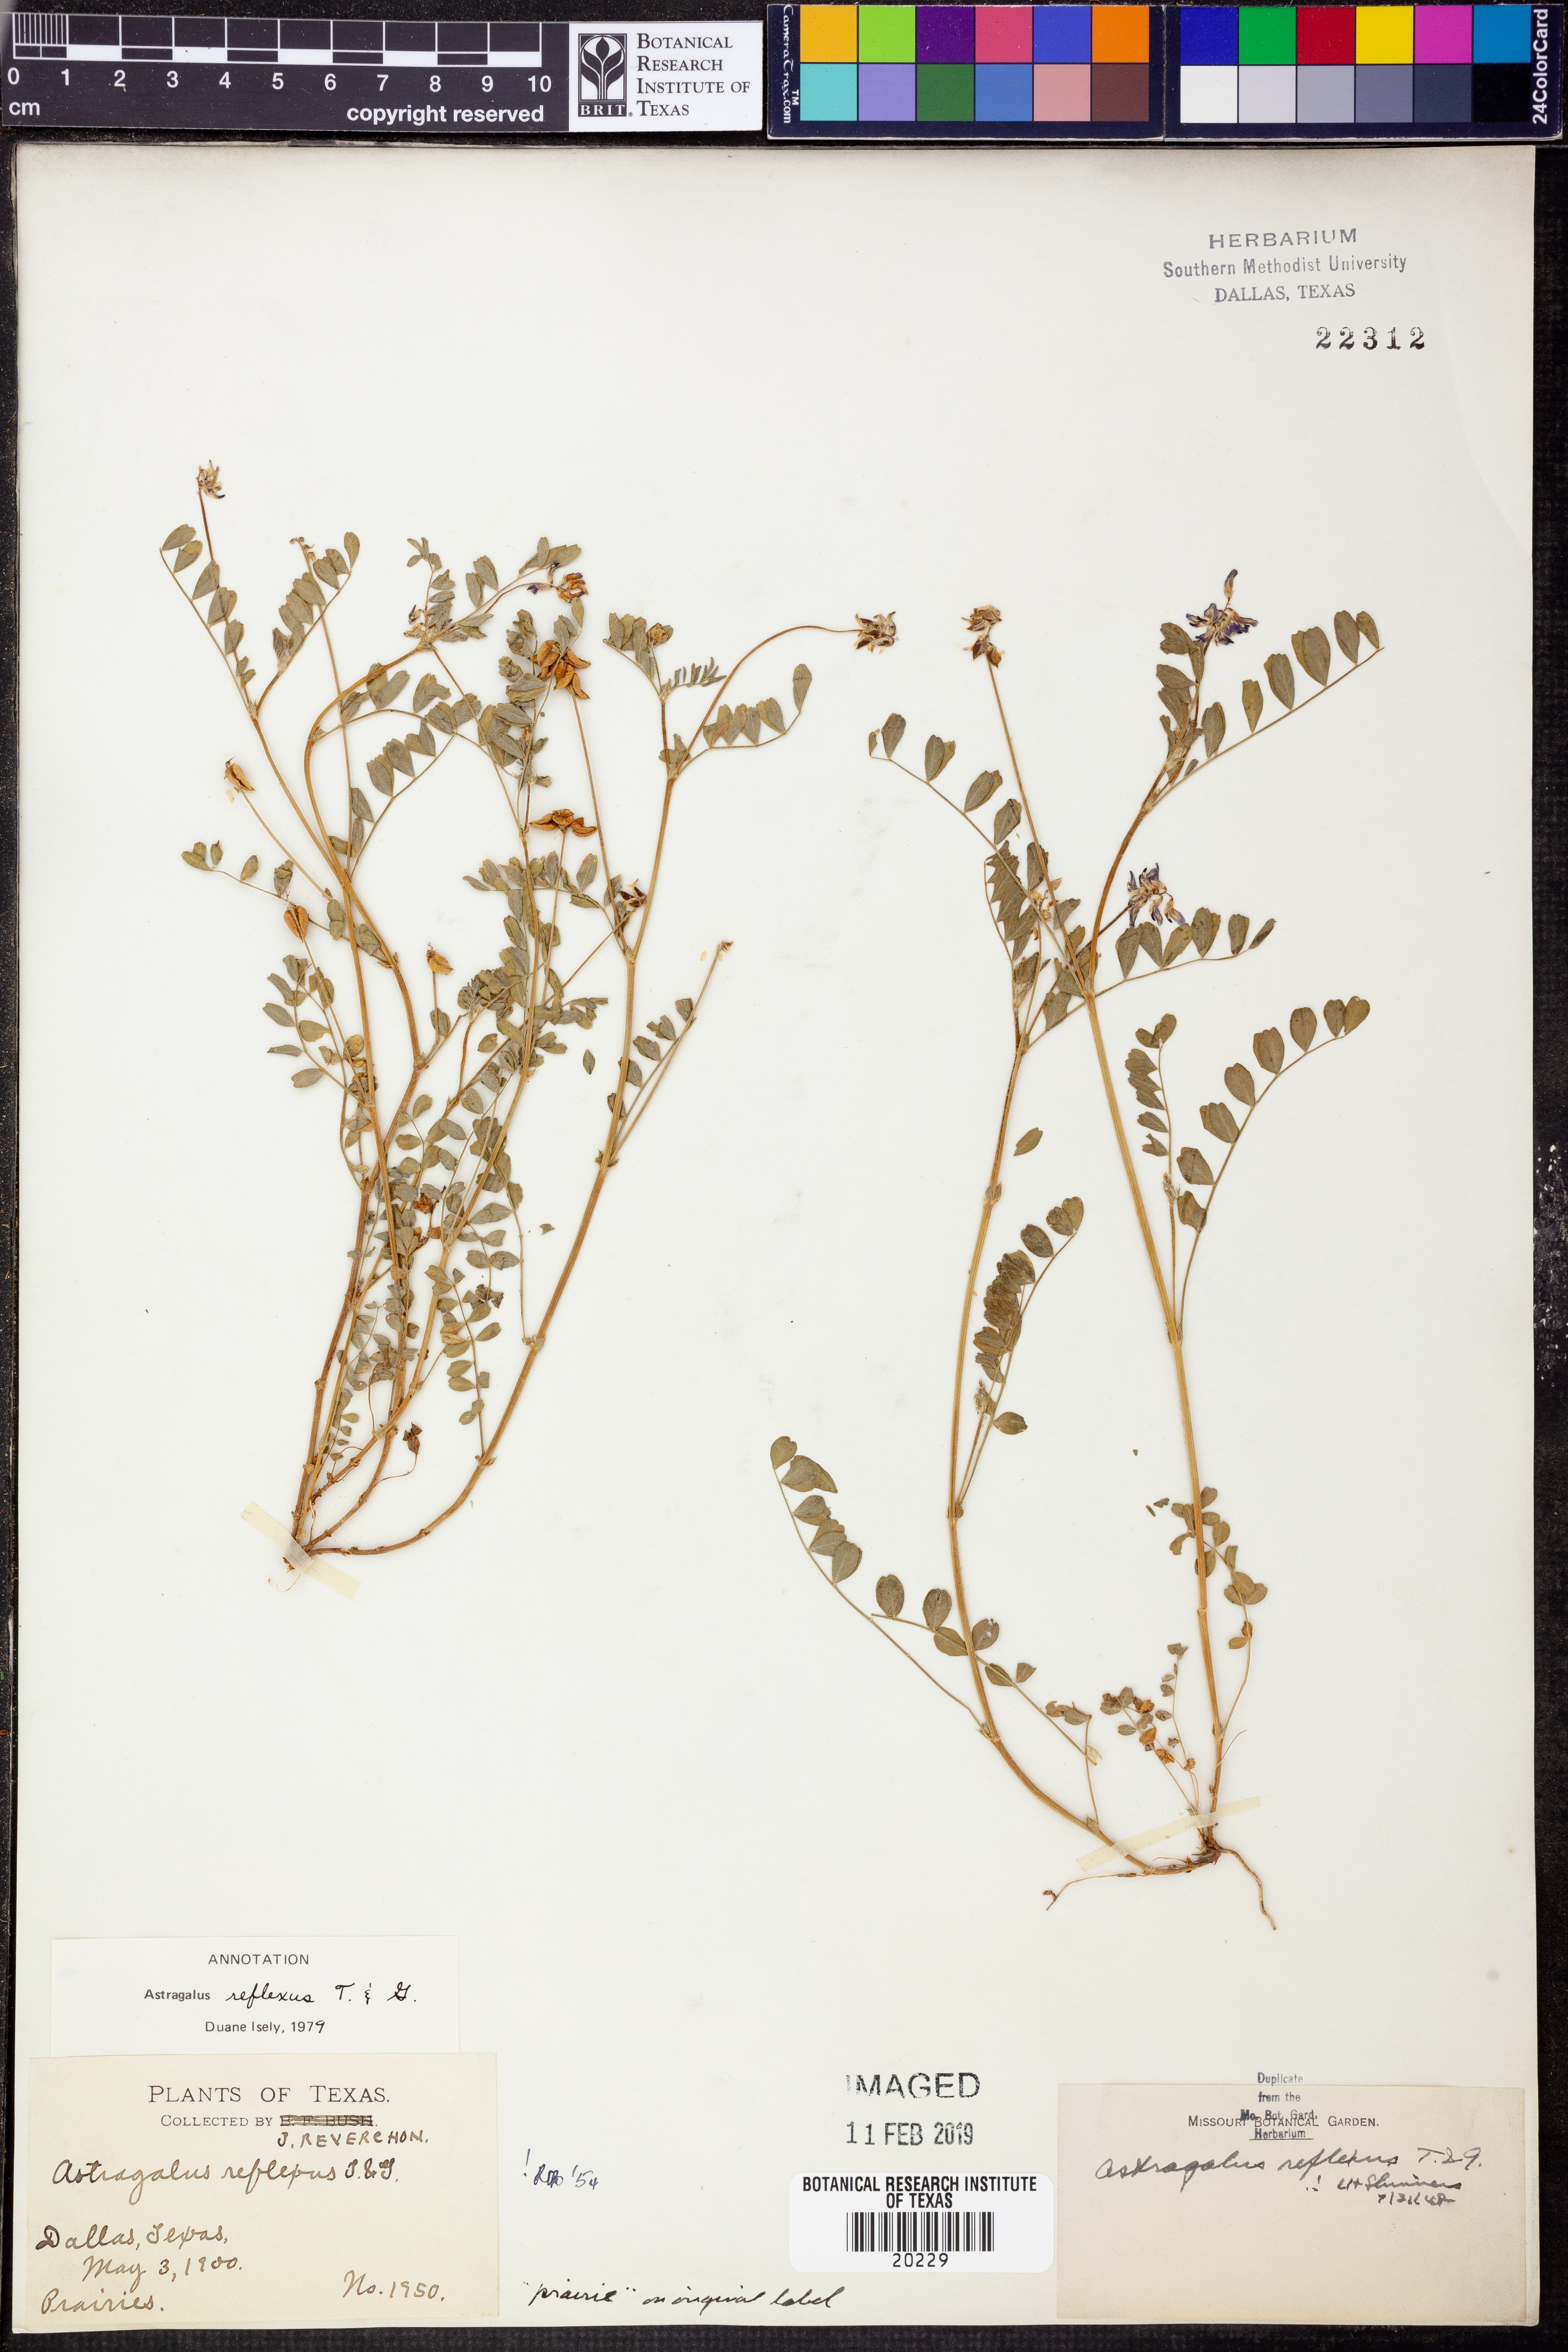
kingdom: Plantae
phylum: Tracheophyta
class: Magnoliopsida
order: Fabales
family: Fabaceae
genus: Astragalus
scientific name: Astragalus reflexus
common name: Texas milk-vetch
